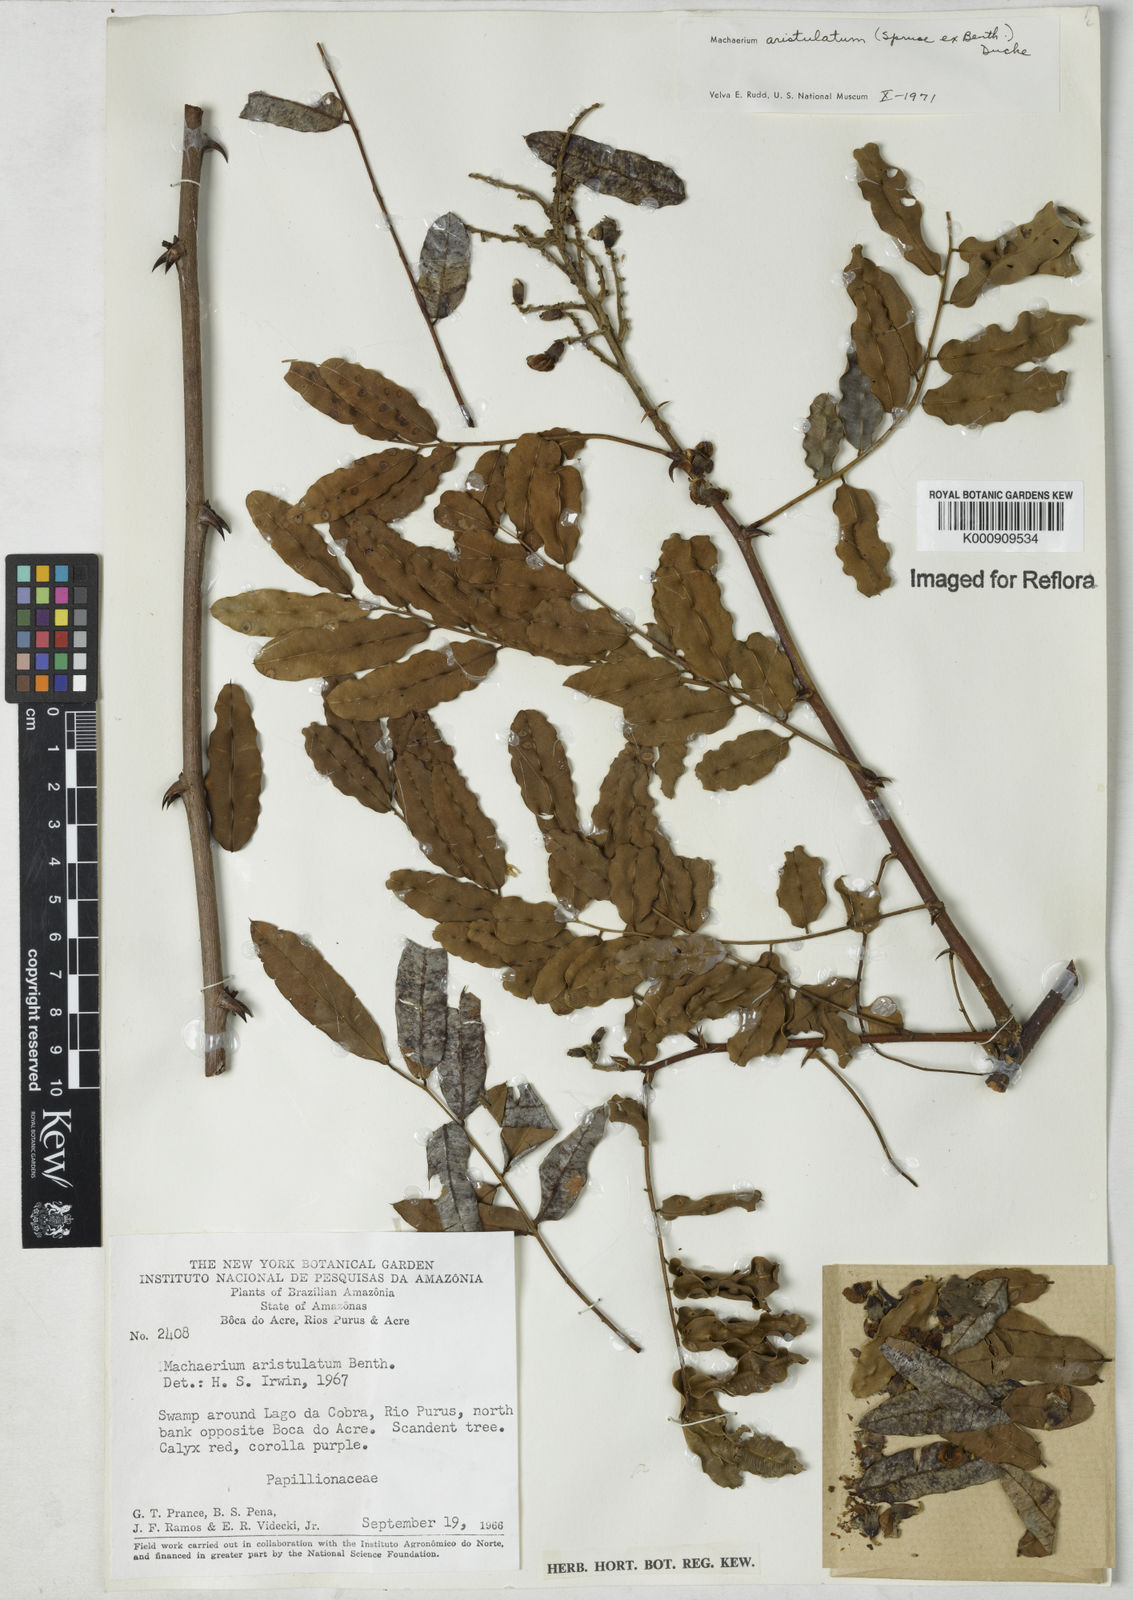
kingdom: Plantae
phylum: Tracheophyta
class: Magnoliopsida
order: Fabales
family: Fabaceae
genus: Machaerium
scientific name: Machaerium aristulatum
